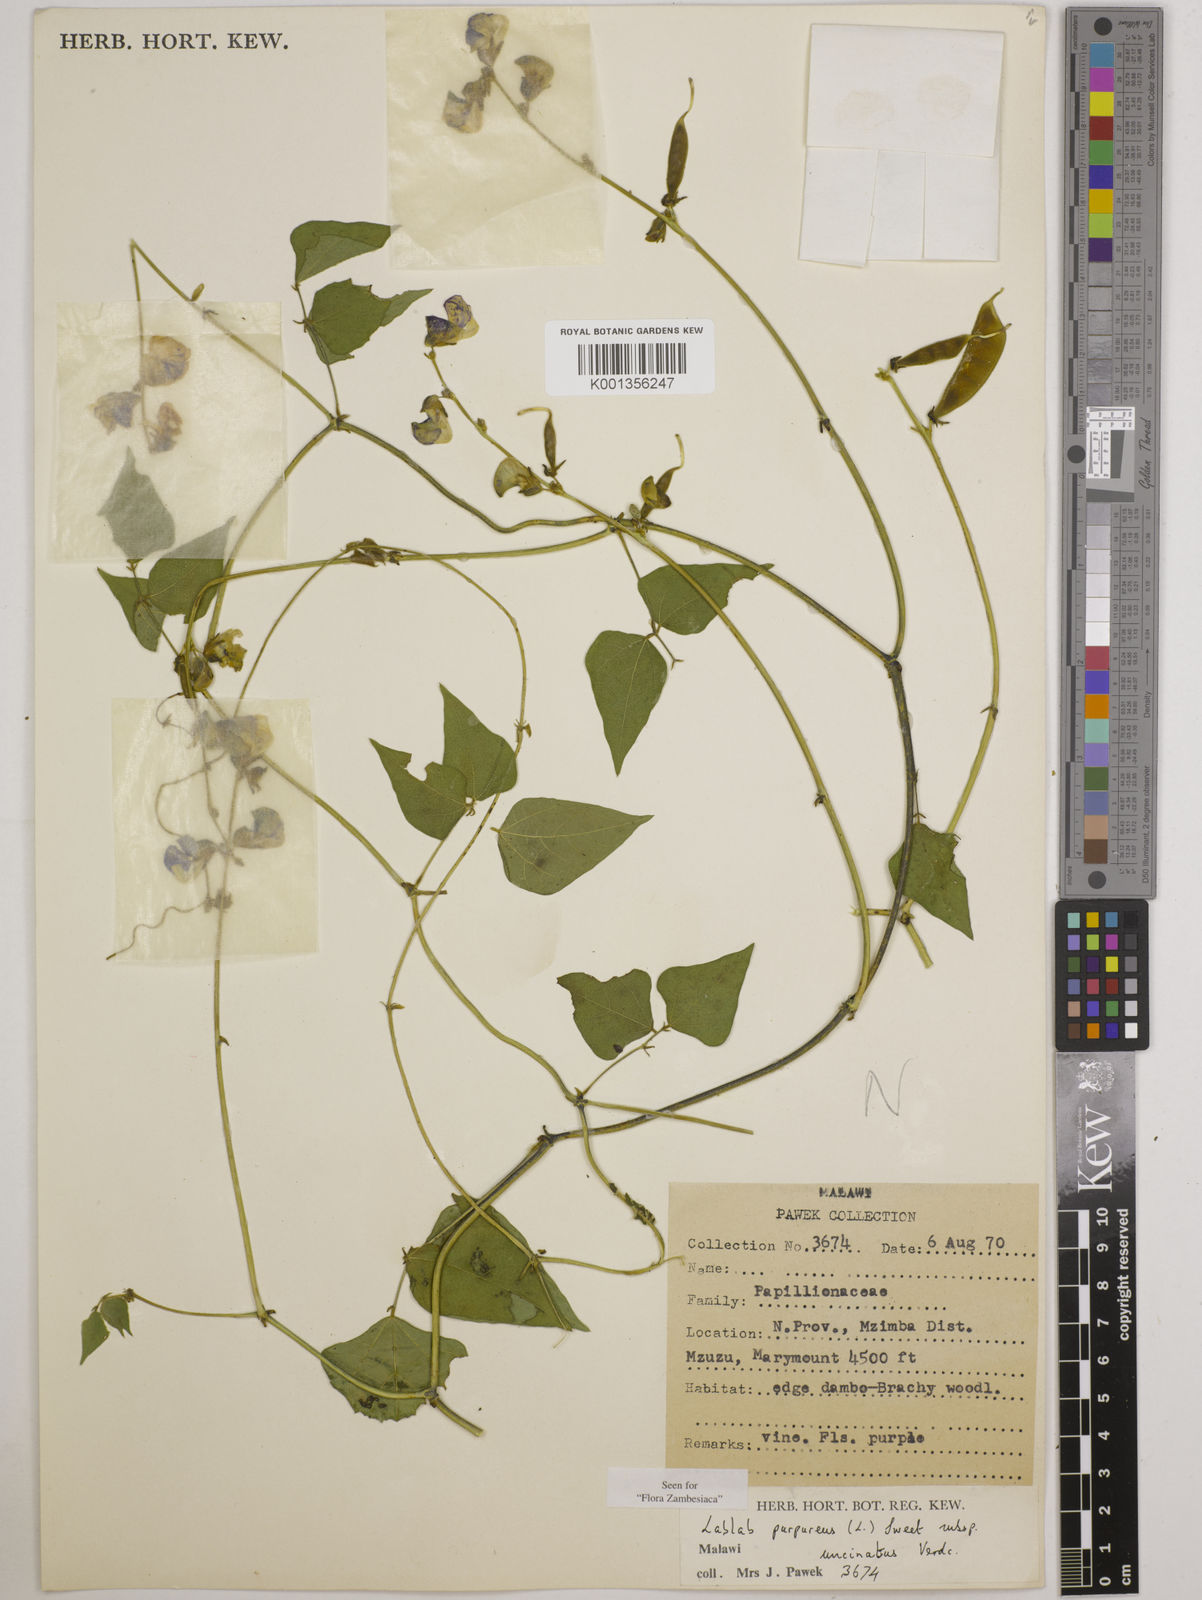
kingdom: Plantae
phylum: Tracheophyta
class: Magnoliopsida
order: Fabales
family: Fabaceae
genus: Lablab
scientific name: Lablab purpureus
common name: Lablab-bean
